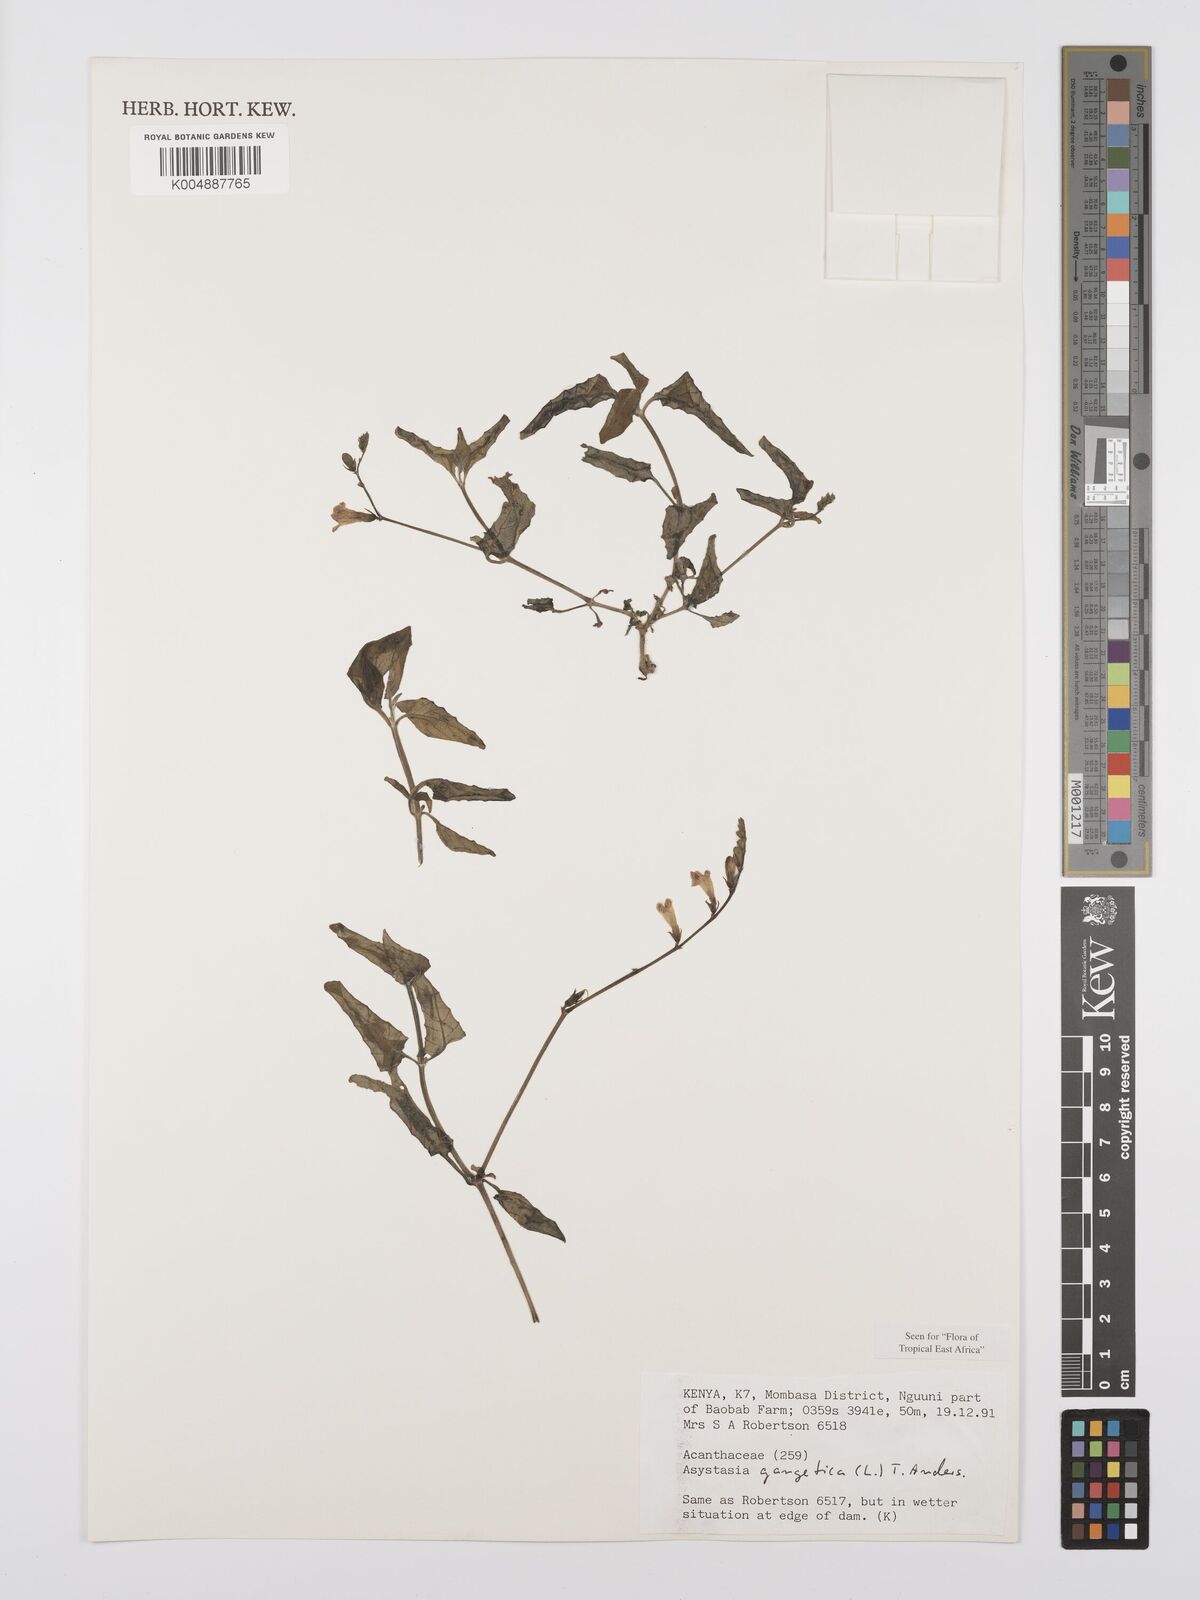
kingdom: Plantae
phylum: Tracheophyta
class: Magnoliopsida
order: Lamiales
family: Acanthaceae
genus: Asystasia
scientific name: Asystasia gangetica
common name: Chinese violet
